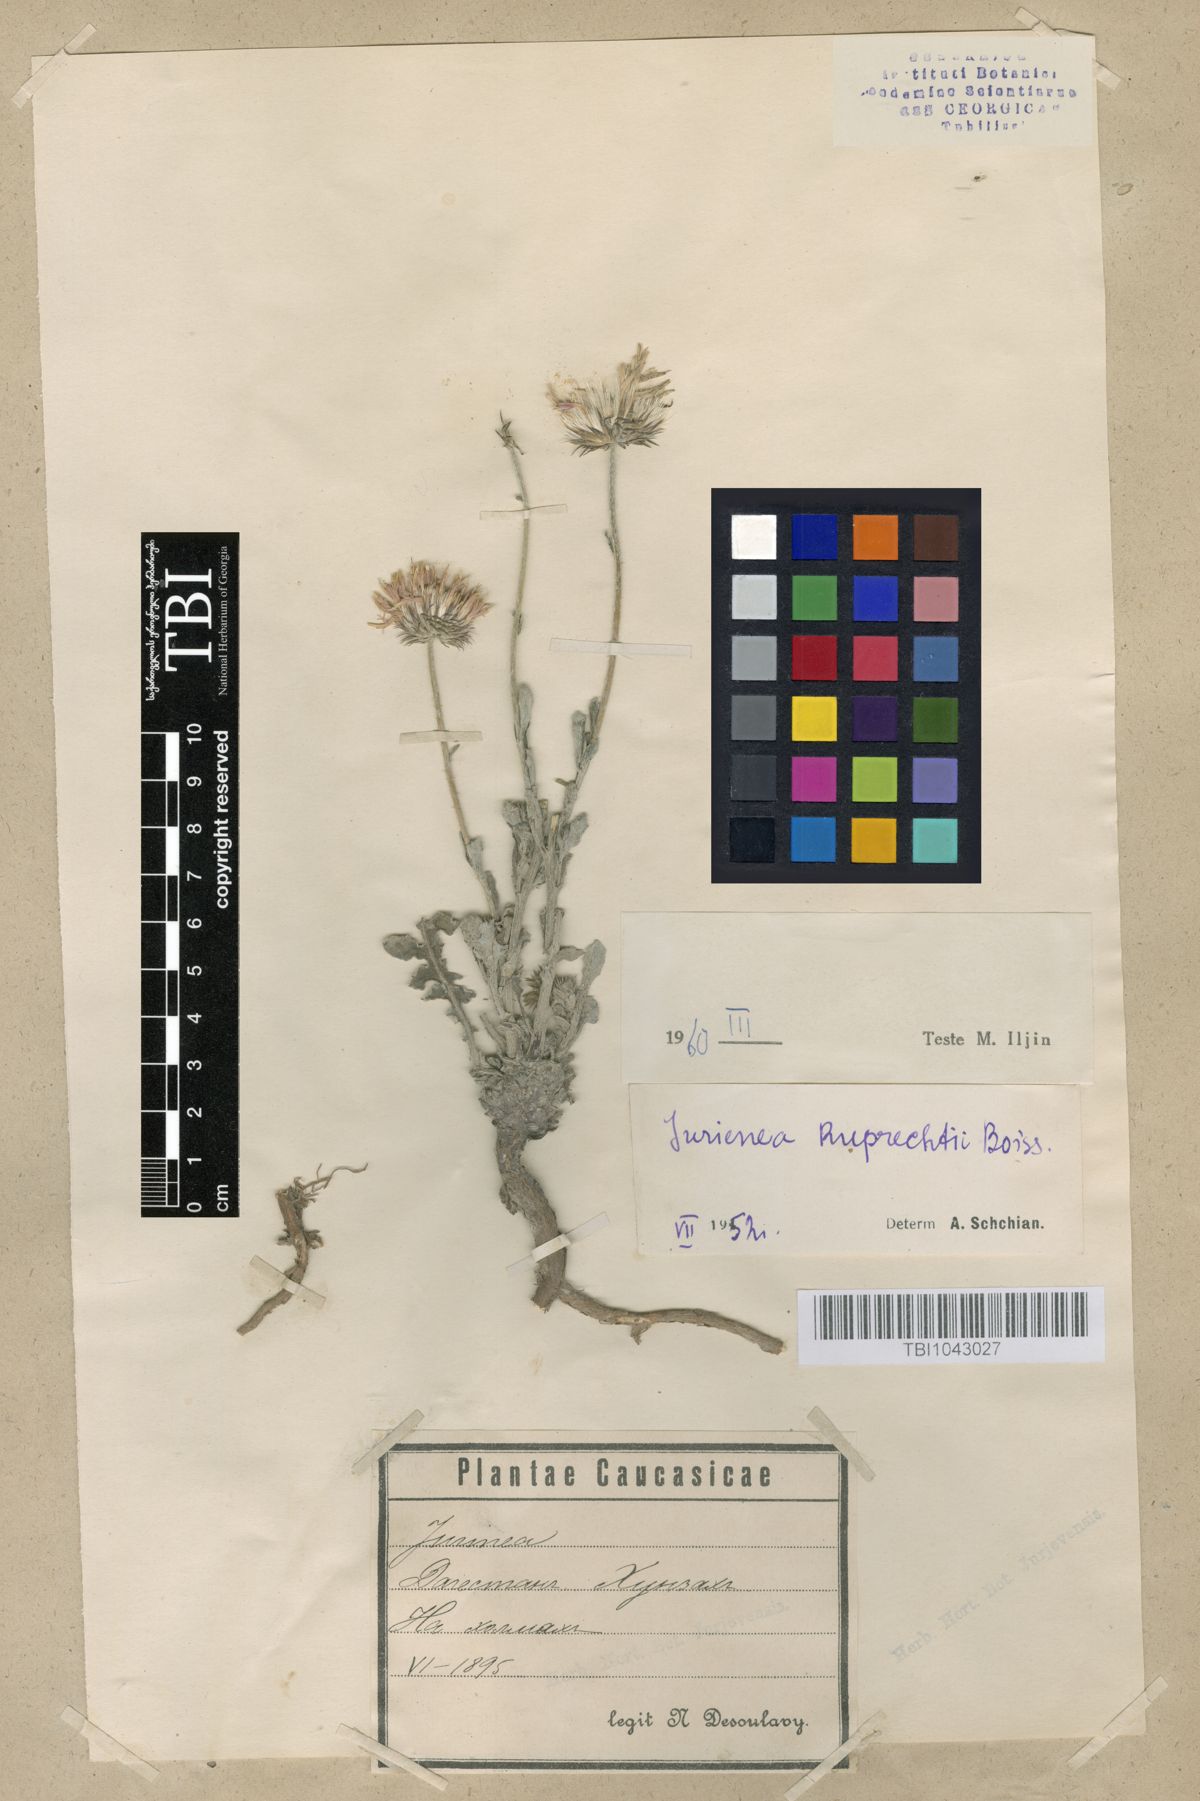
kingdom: Plantae
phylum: Tracheophyta
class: Magnoliopsida
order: Asterales
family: Asteraceae
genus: Jurinea
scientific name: Jurinea ruprechtii
